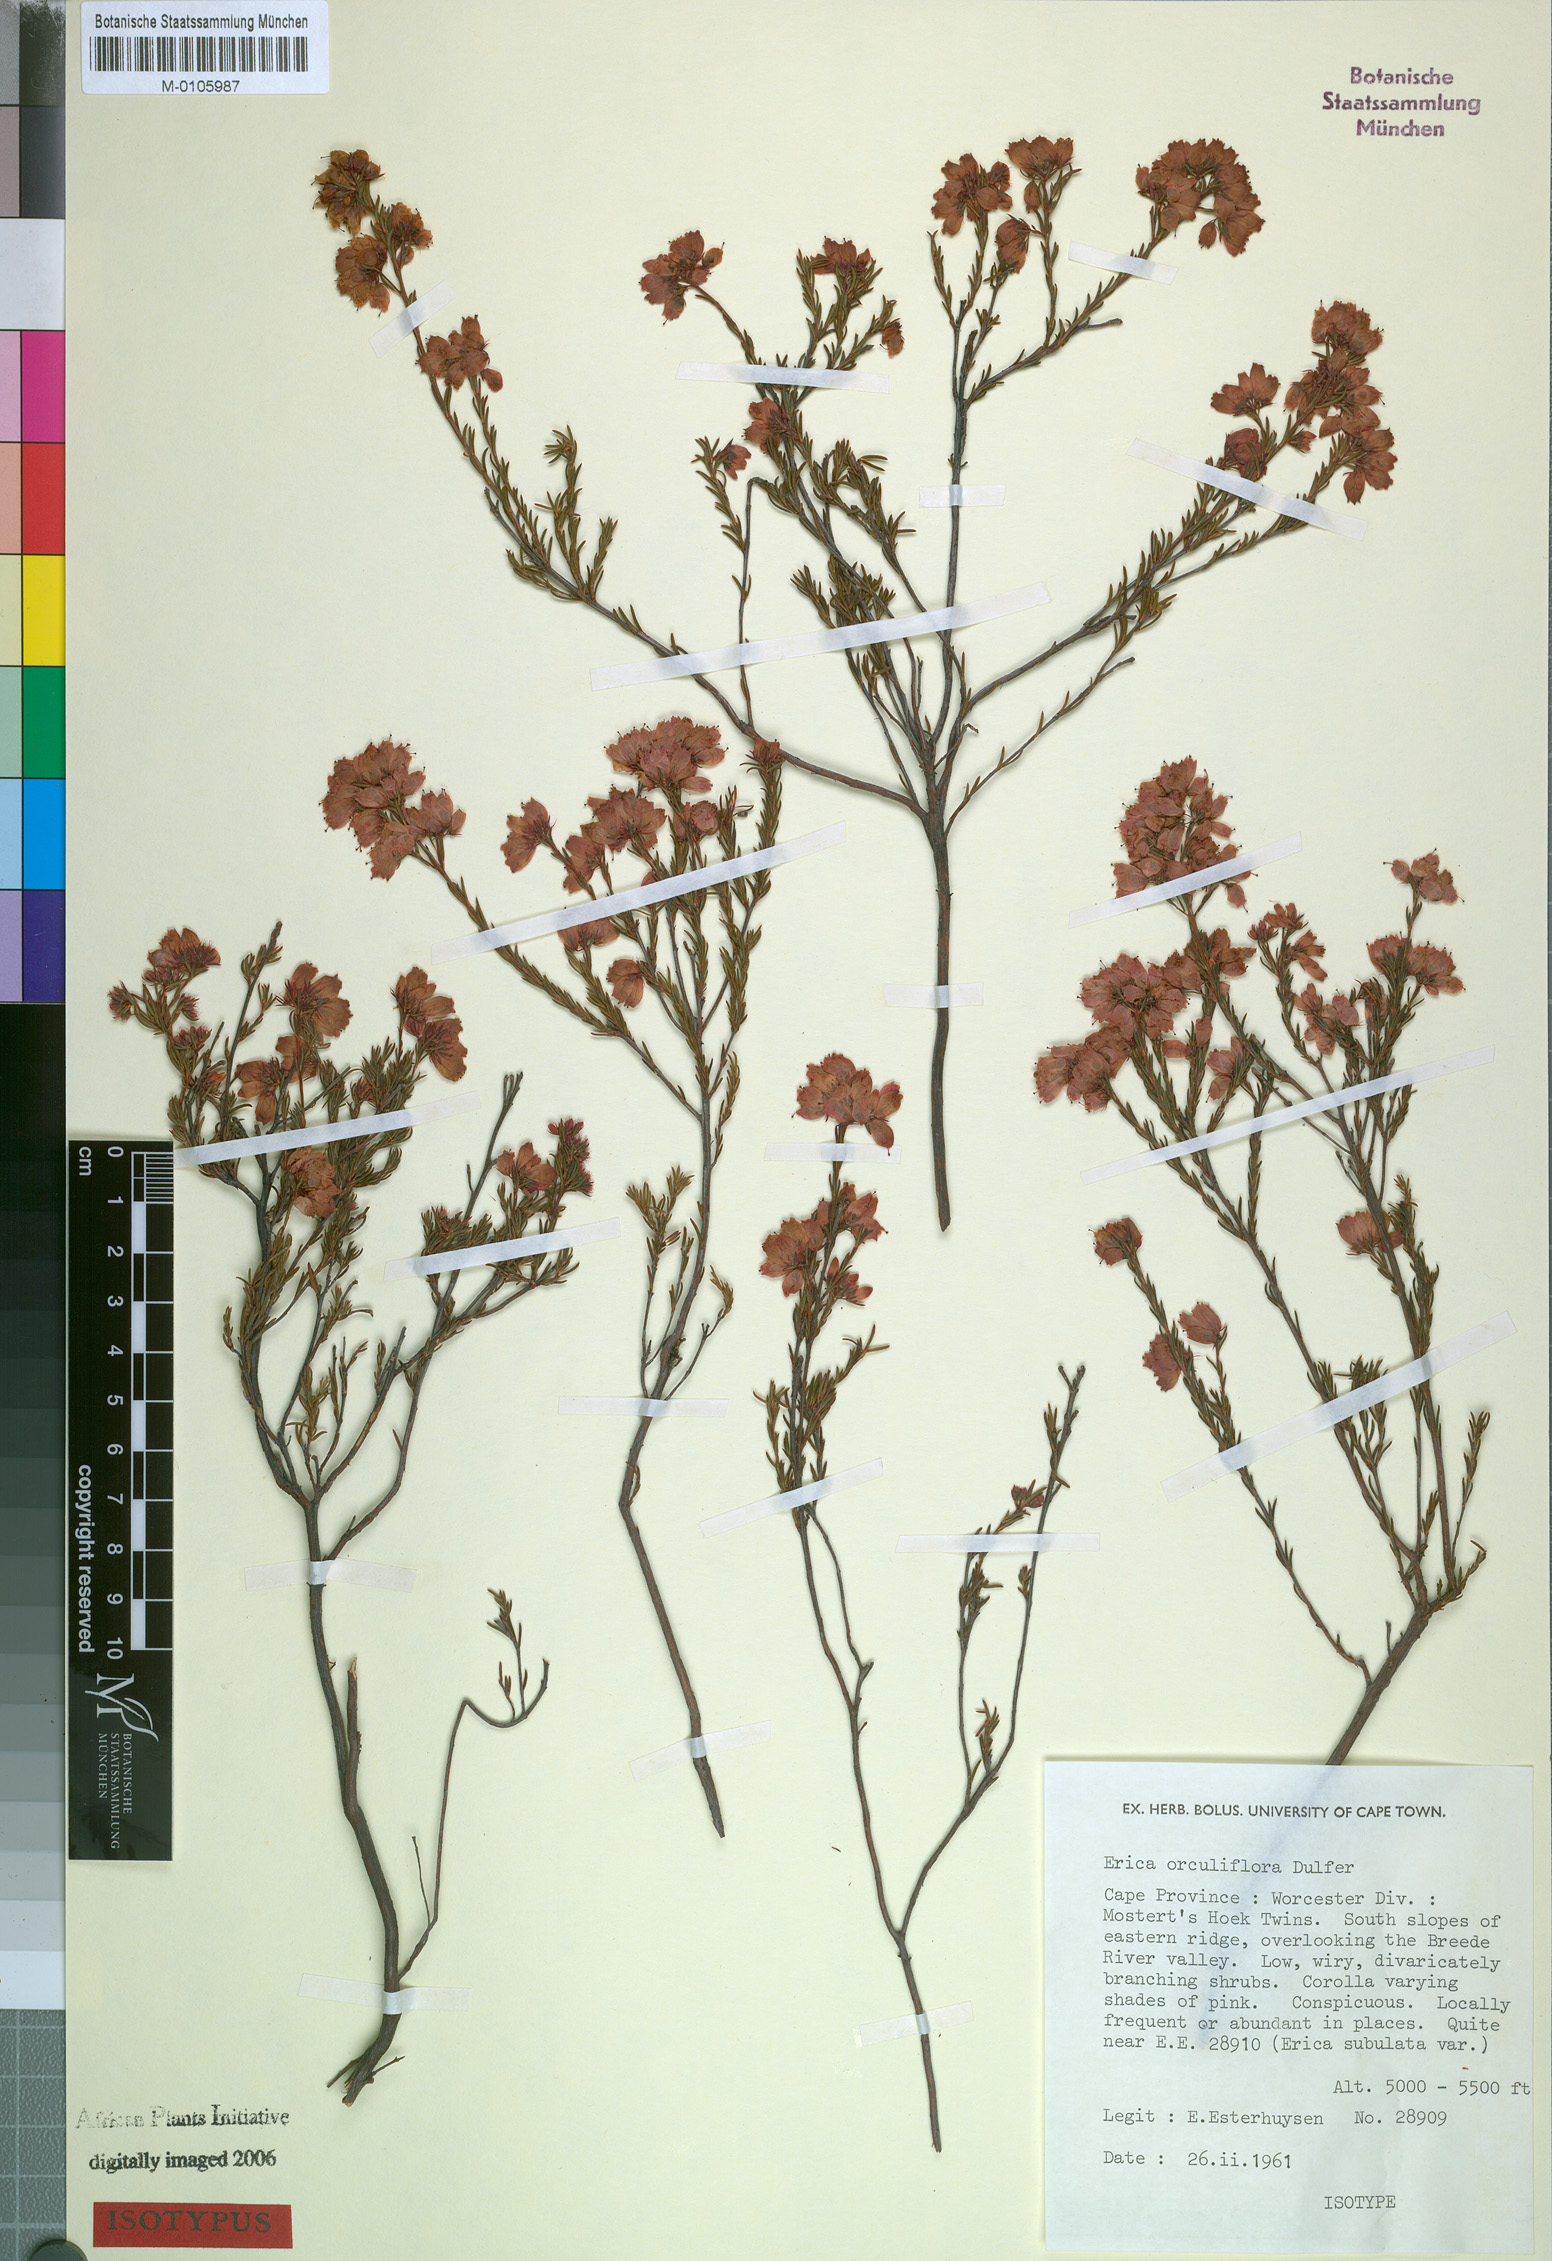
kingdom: Plantae
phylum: Tracheophyta
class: Magnoliopsida
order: Ericales
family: Ericaceae
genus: Erica
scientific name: Erica orculiflora
